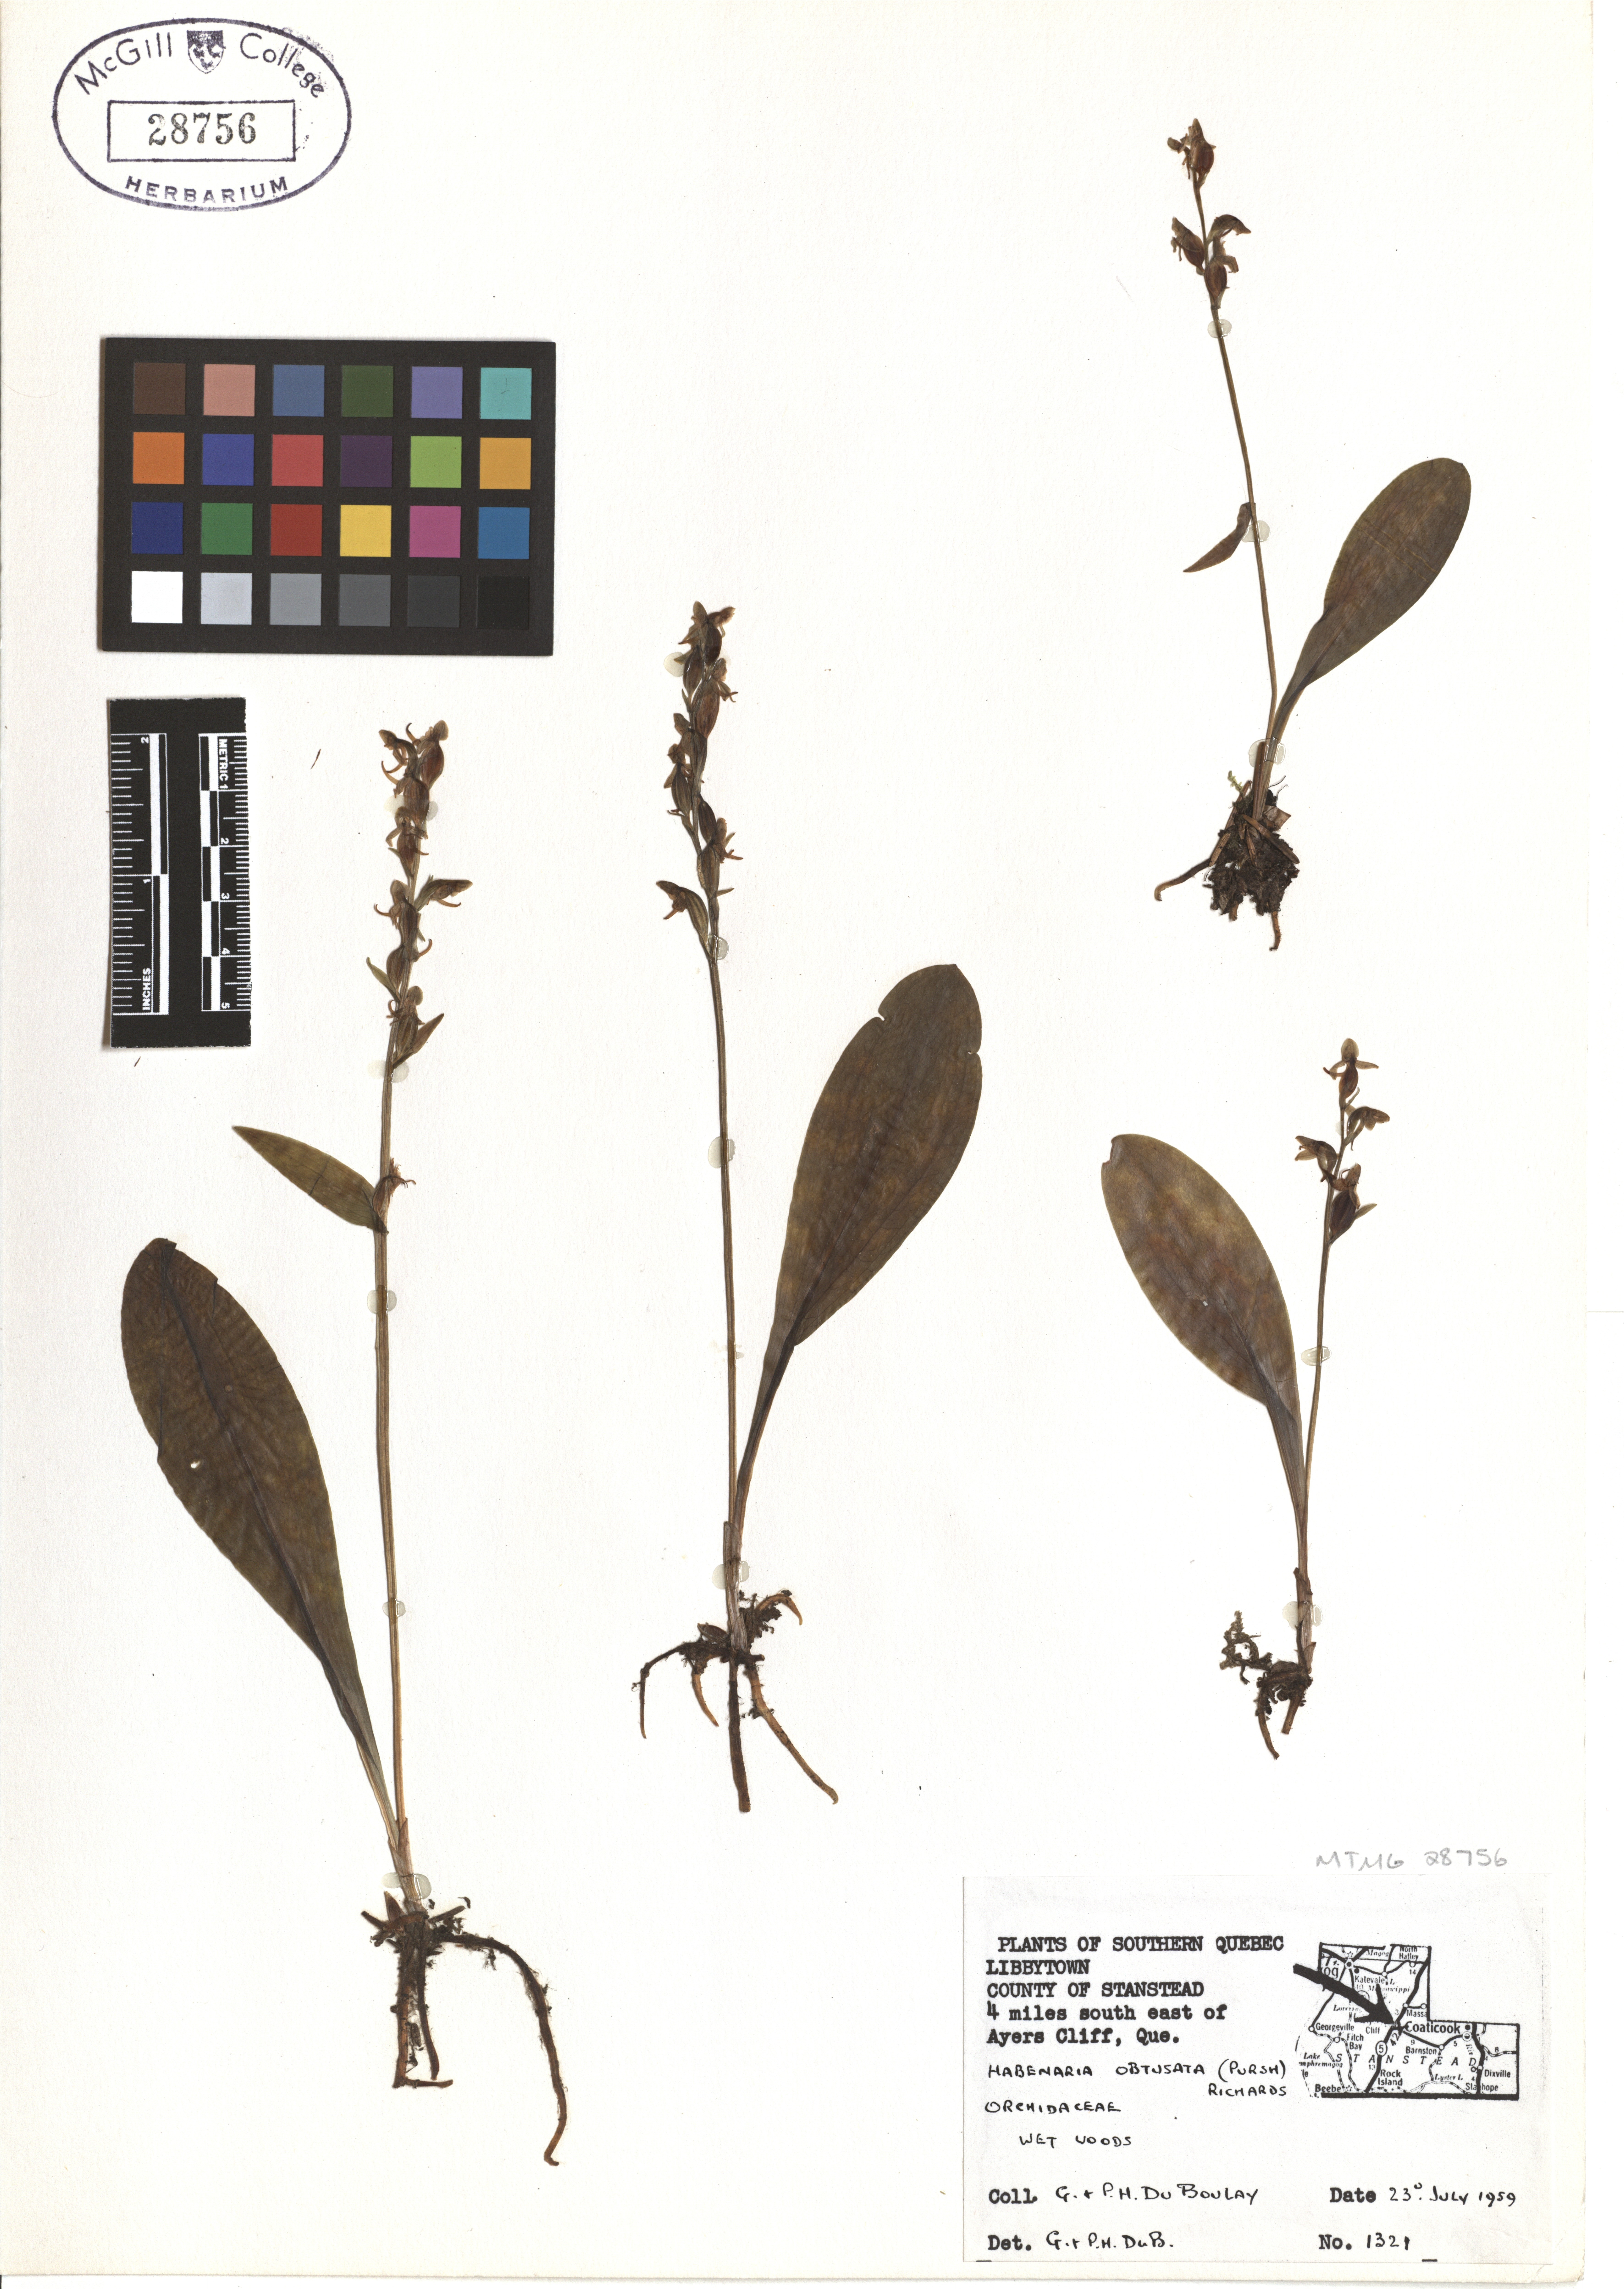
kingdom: Plantae
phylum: Tracheophyta
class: Liliopsida
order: Asparagales
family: Orchidaceae
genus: Platanthera
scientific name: Platanthera obtusata
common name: Blunt bog orchid
